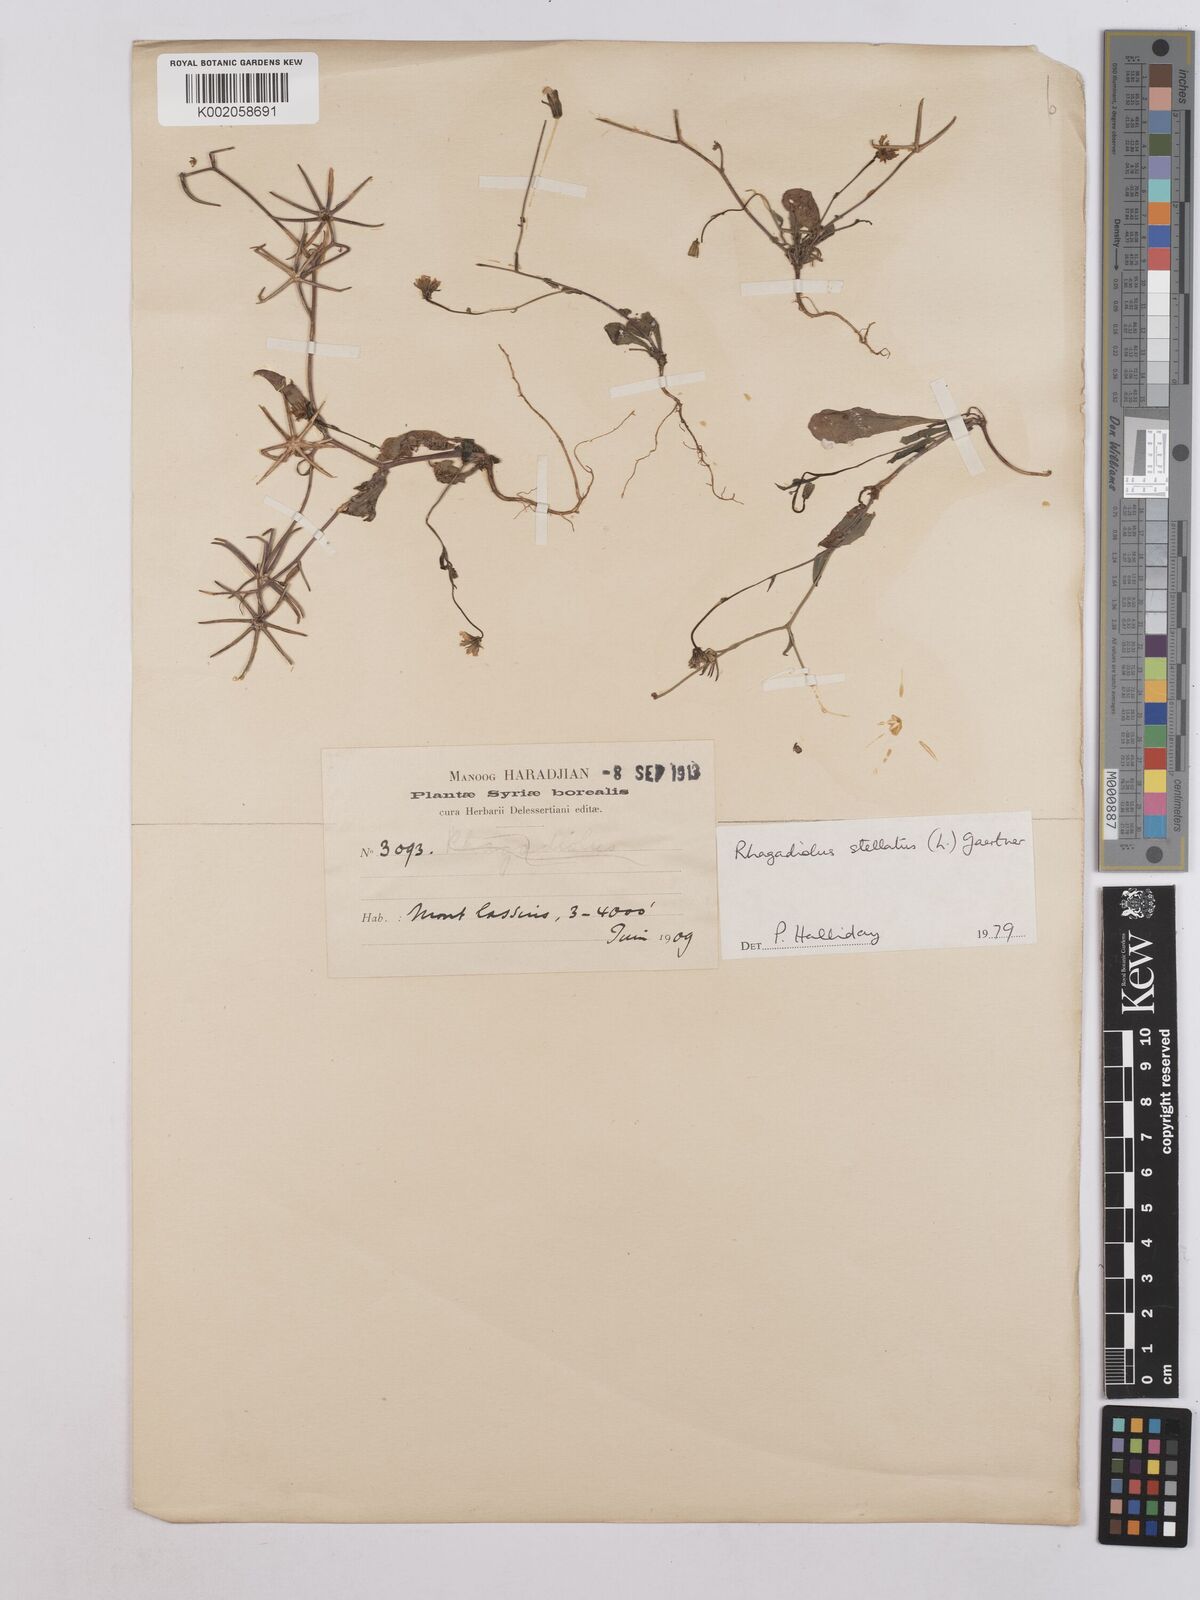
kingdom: Plantae
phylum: Tracheophyta
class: Magnoliopsida
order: Asterales
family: Asteraceae
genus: Rhagadiolus
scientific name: Rhagadiolus stellatus
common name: Star hawkbit
